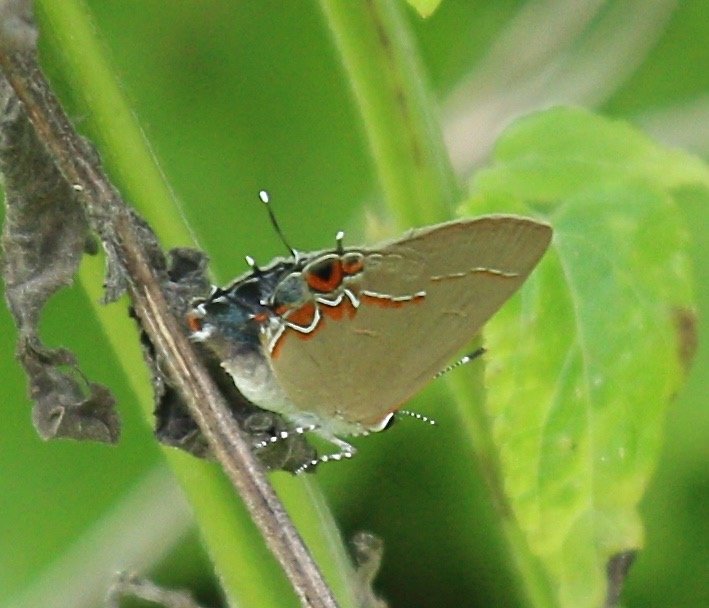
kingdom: Animalia
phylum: Arthropoda
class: Insecta
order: Lepidoptera
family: Lycaenidae
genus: Calycopis
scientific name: Calycopis isobeon
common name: Dusky-blue Groundstreak
